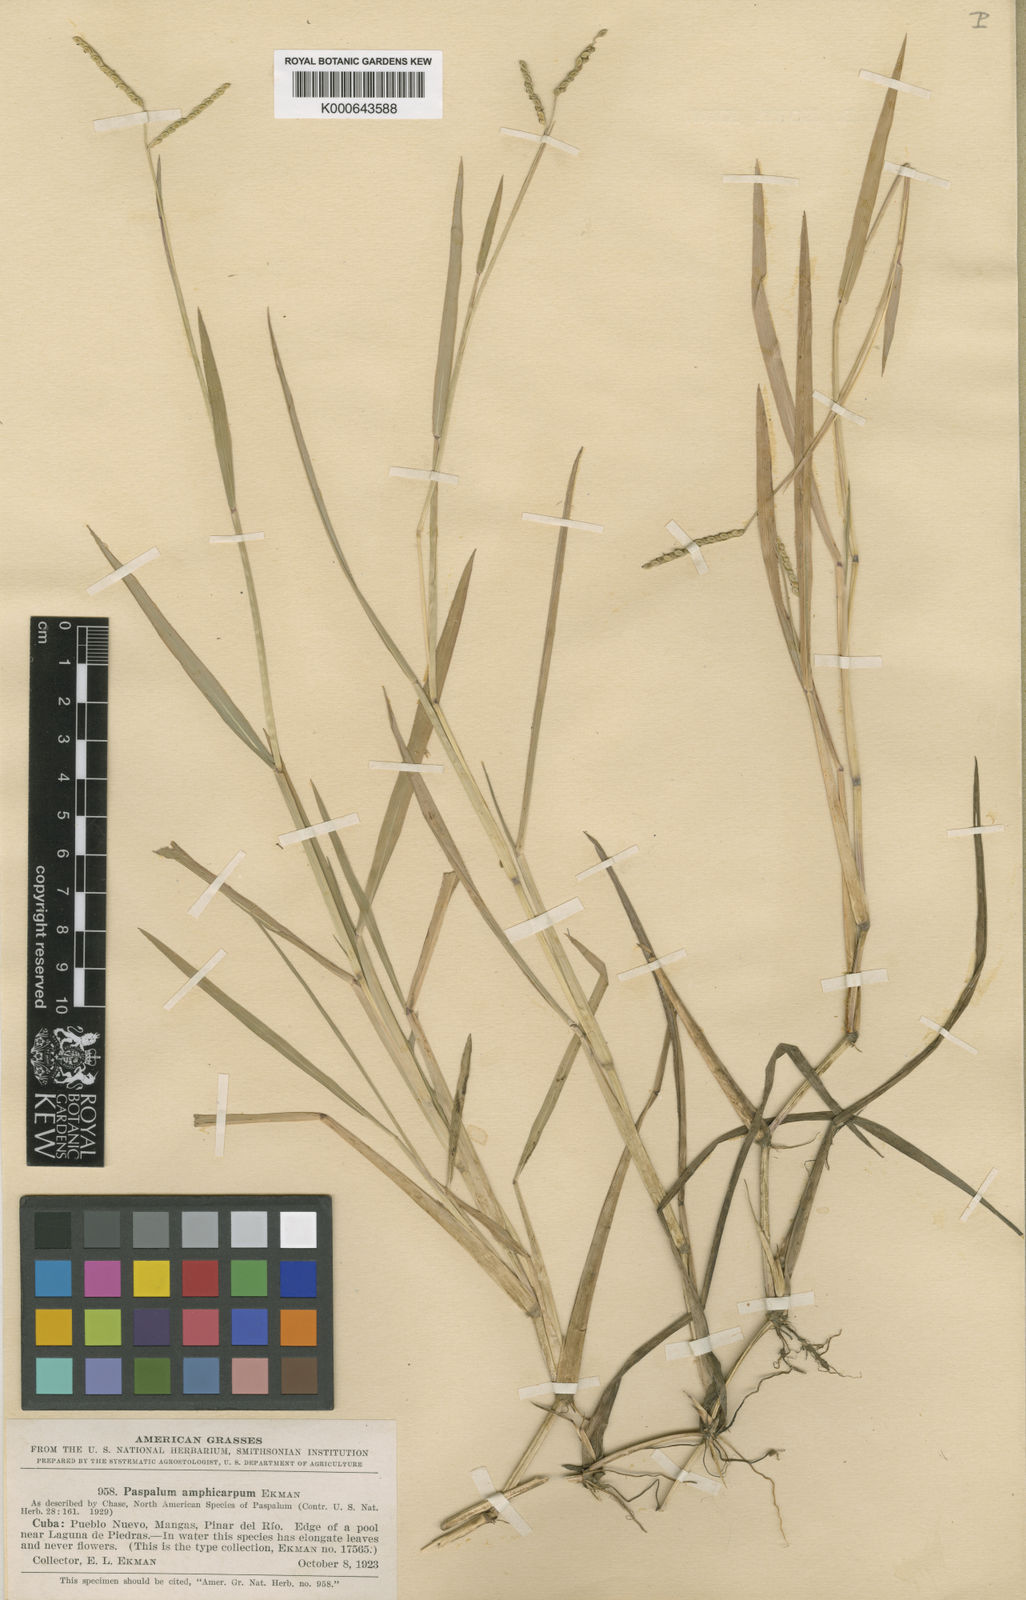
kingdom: Plantae
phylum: Tracheophyta
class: Liliopsida
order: Poales
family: Poaceae
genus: Paspalum
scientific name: Paspalum amphicarpum
